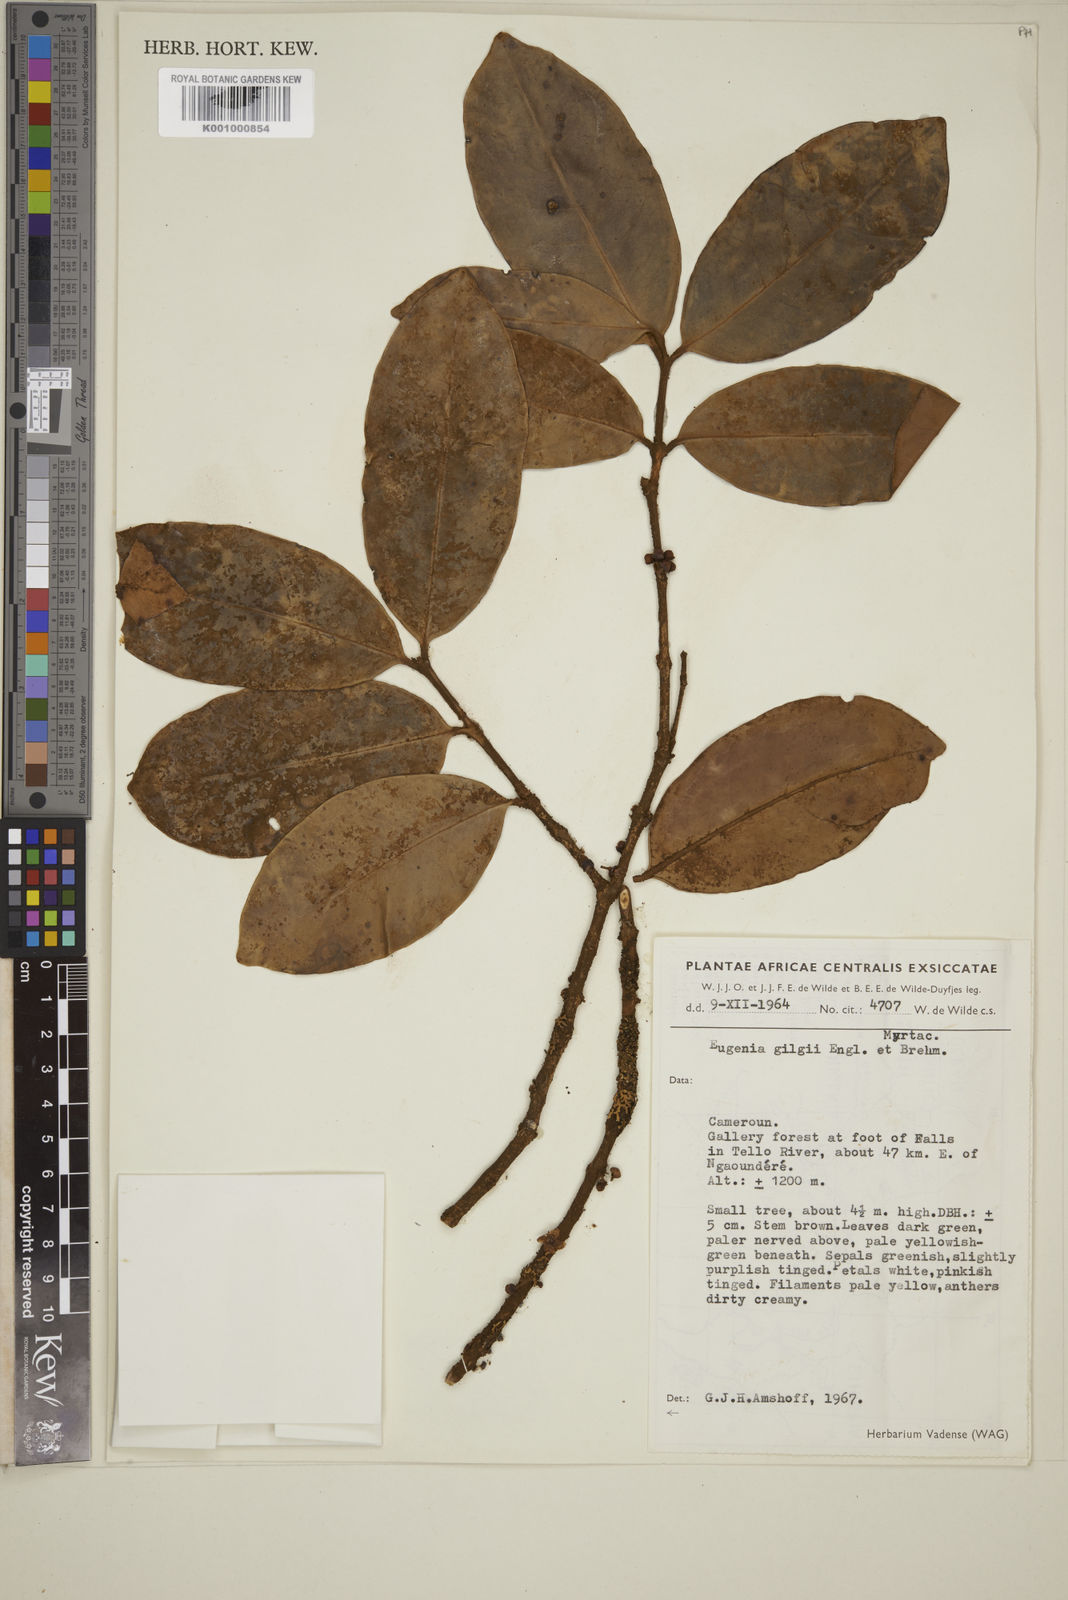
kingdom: Plantae
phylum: Tracheophyta
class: Magnoliopsida
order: Myrtales
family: Myrtaceae
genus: Eugenia
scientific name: Eugenia gilgii
